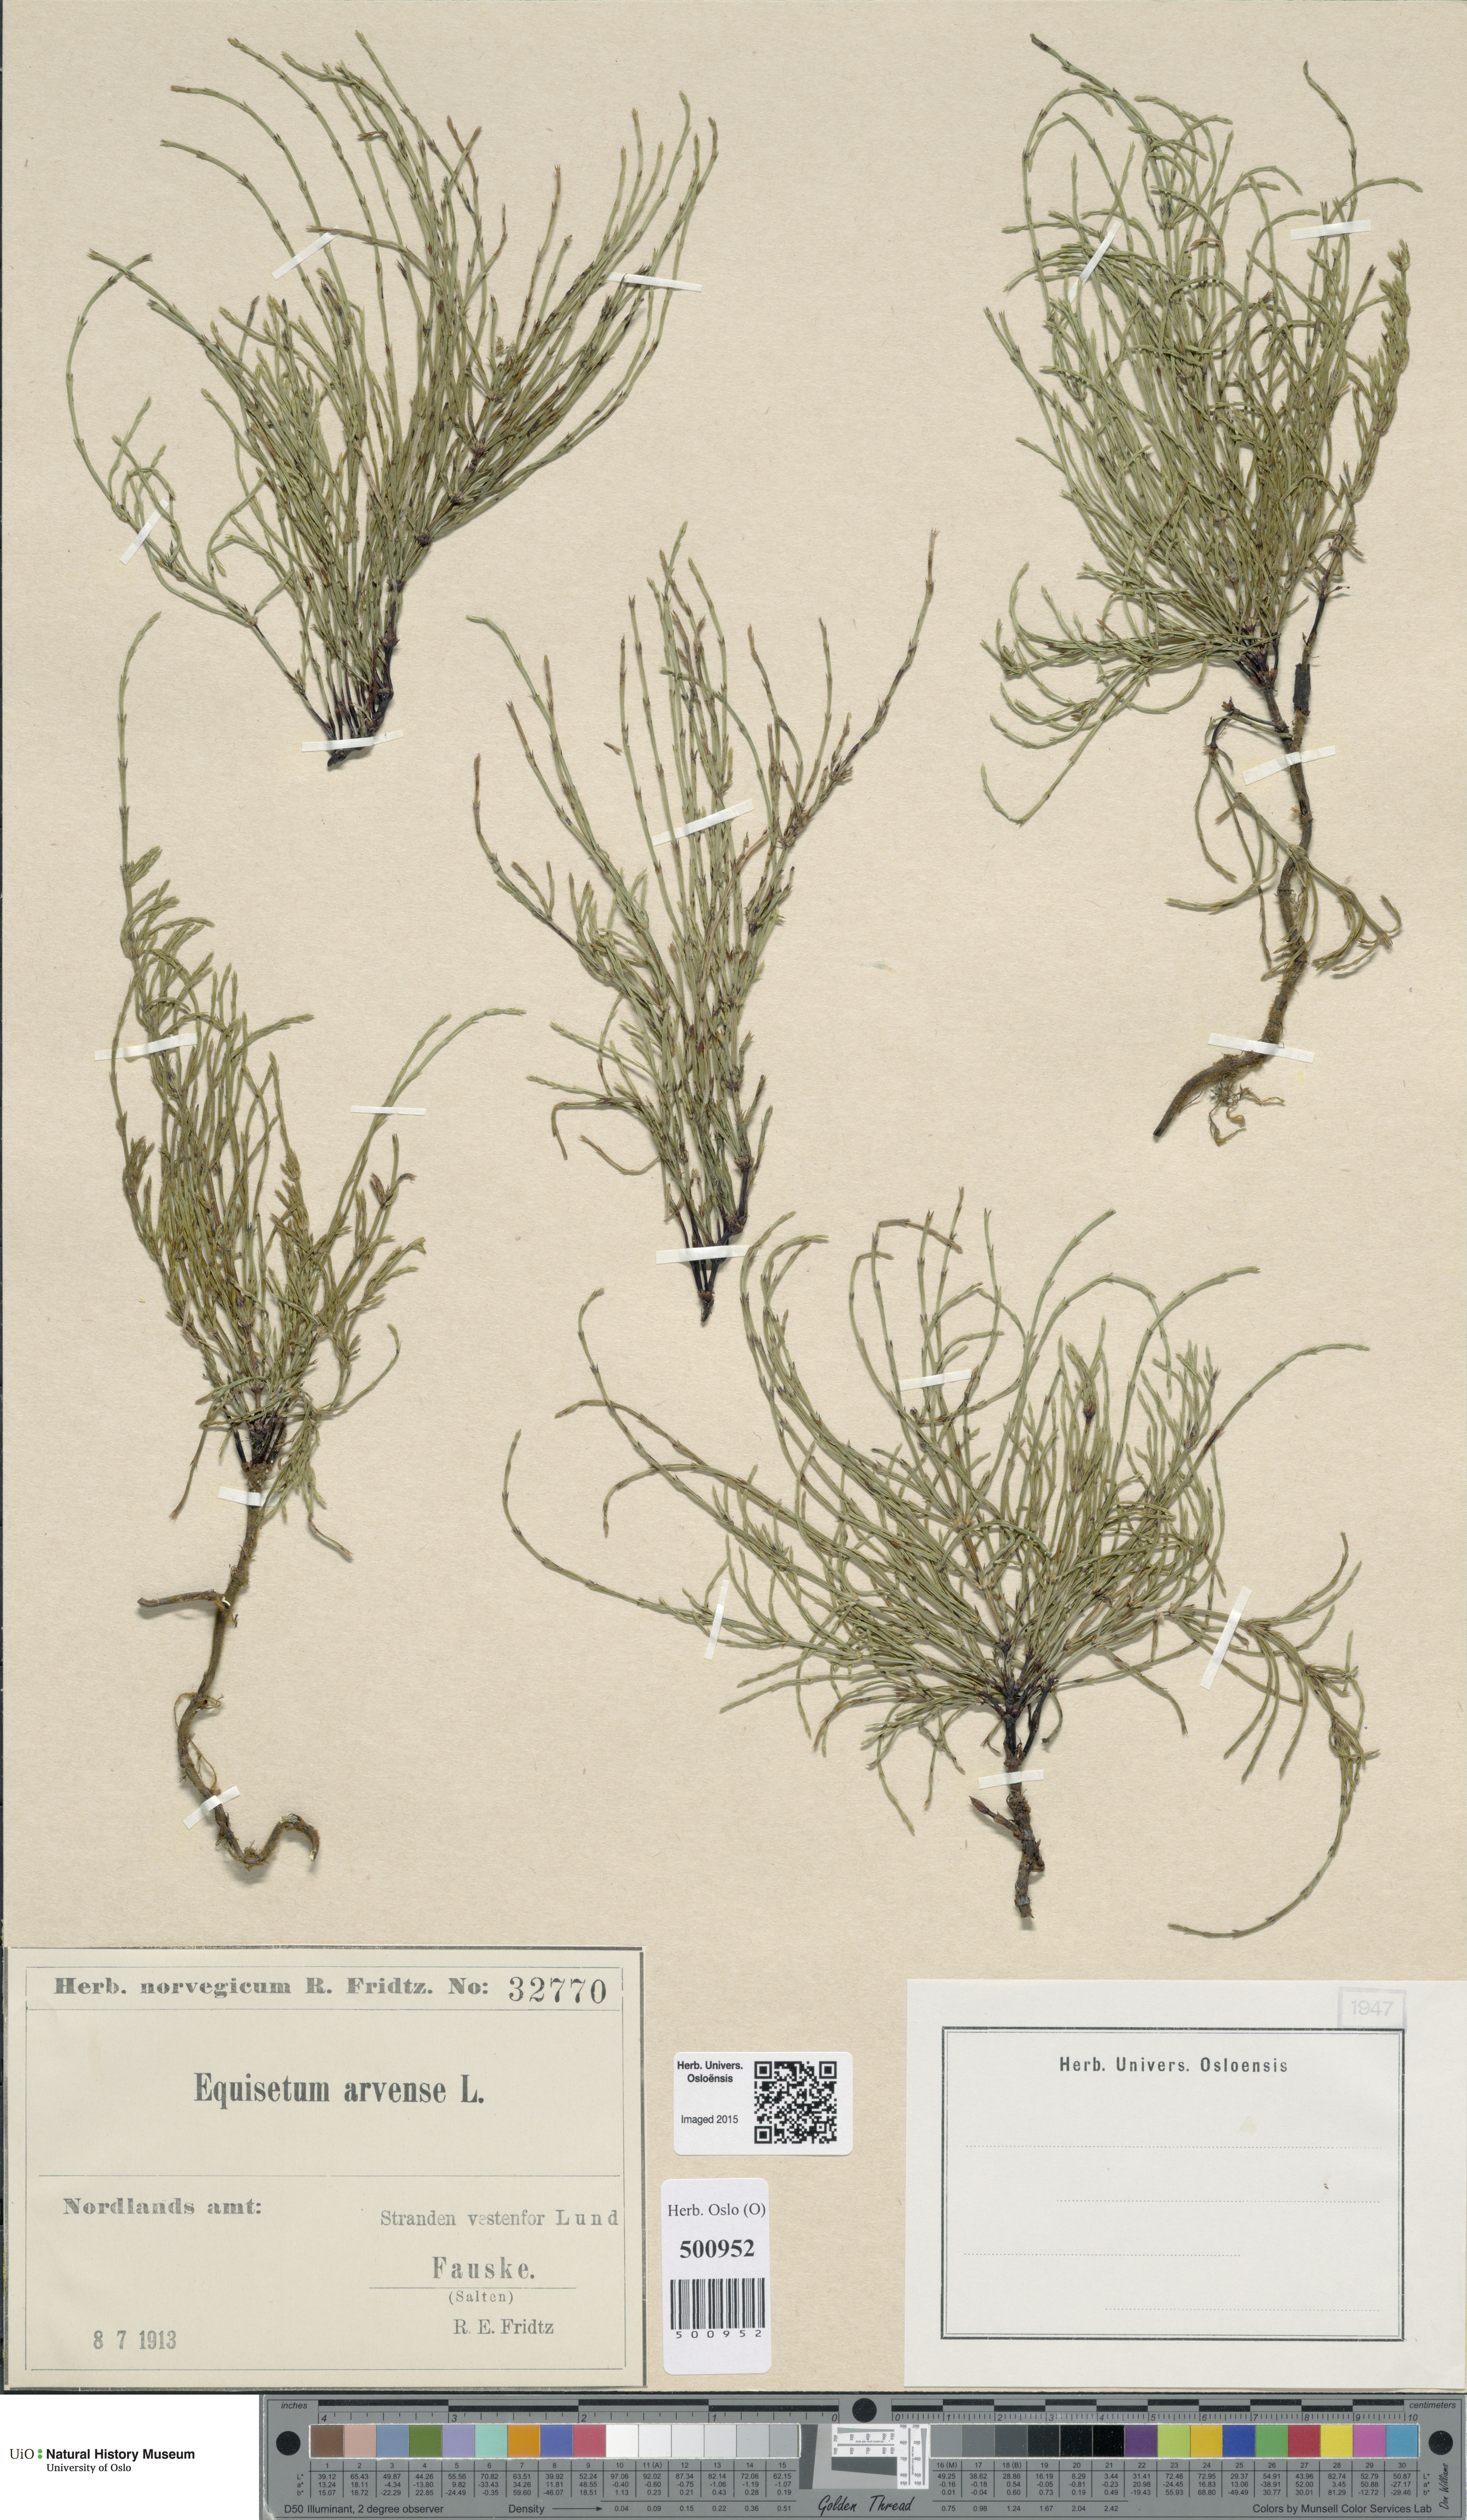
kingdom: Plantae
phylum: Tracheophyta
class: Polypodiopsida
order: Equisetales
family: Equisetaceae
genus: Equisetum
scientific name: Equisetum arvense
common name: Field horsetail
